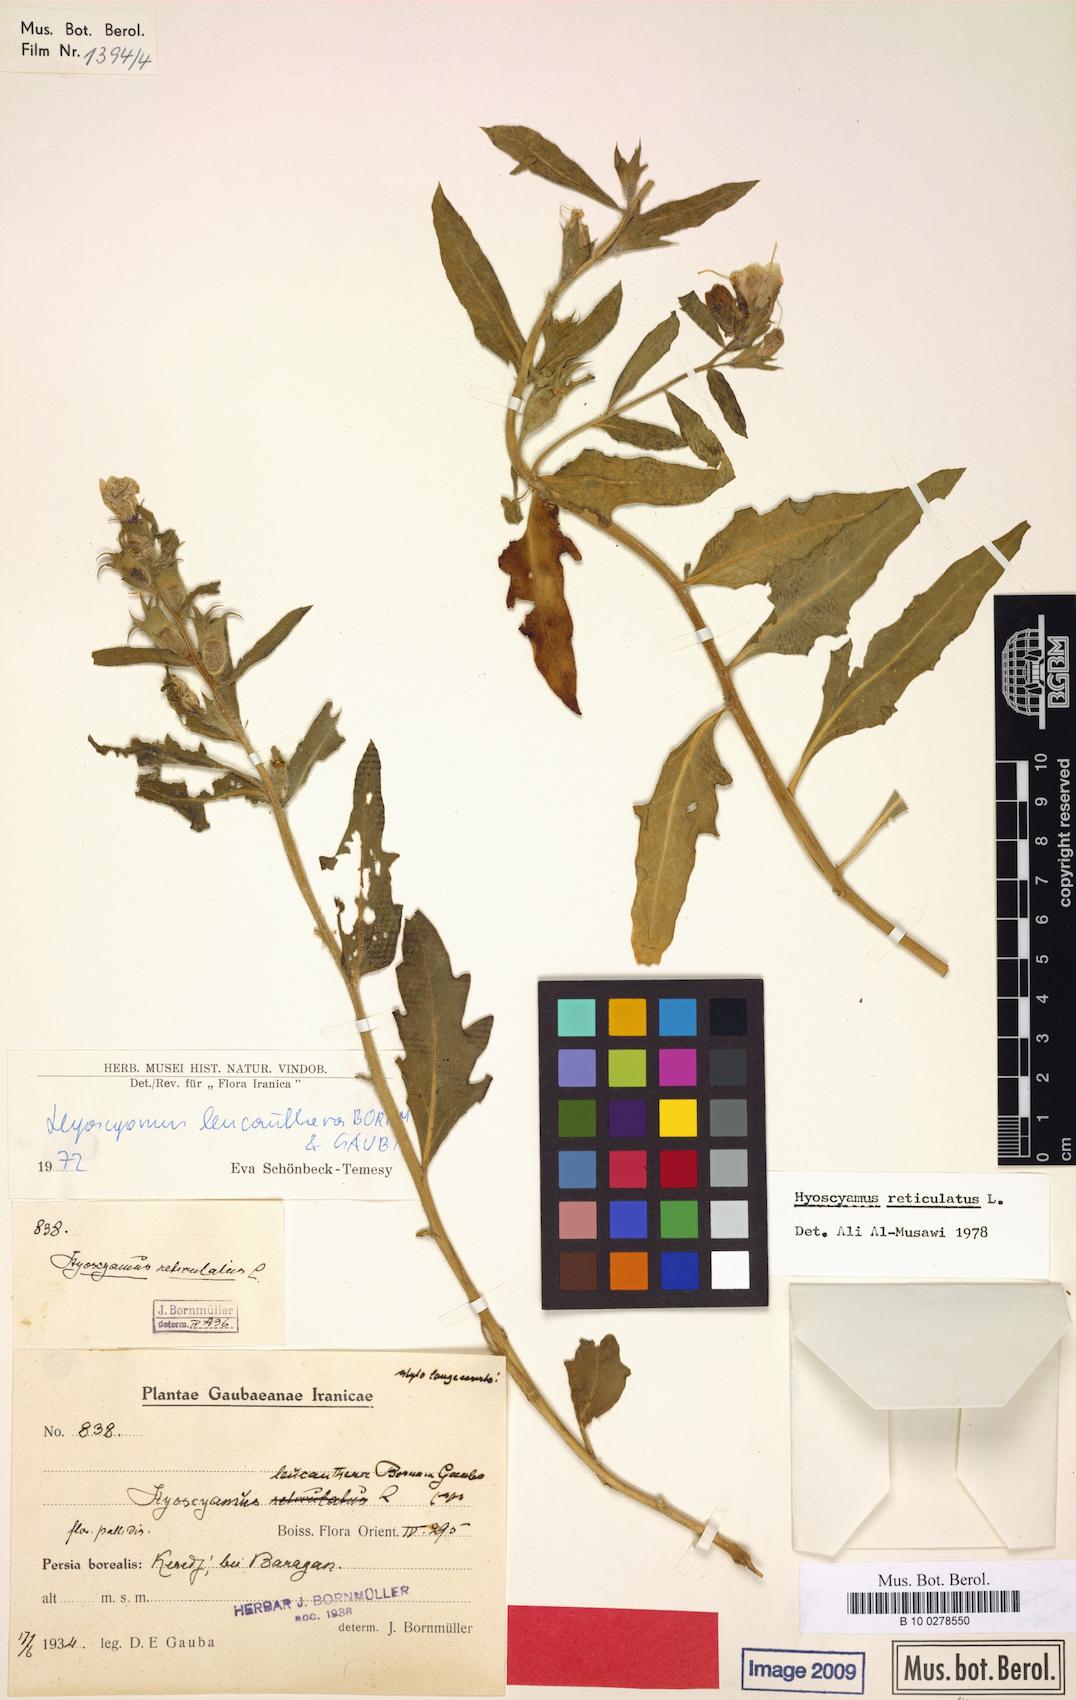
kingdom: Plantae
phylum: Tracheophyta
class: Magnoliopsida
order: Solanales
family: Solanaceae
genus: Hyoscyamus
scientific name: Hyoscyamus leucanthera
